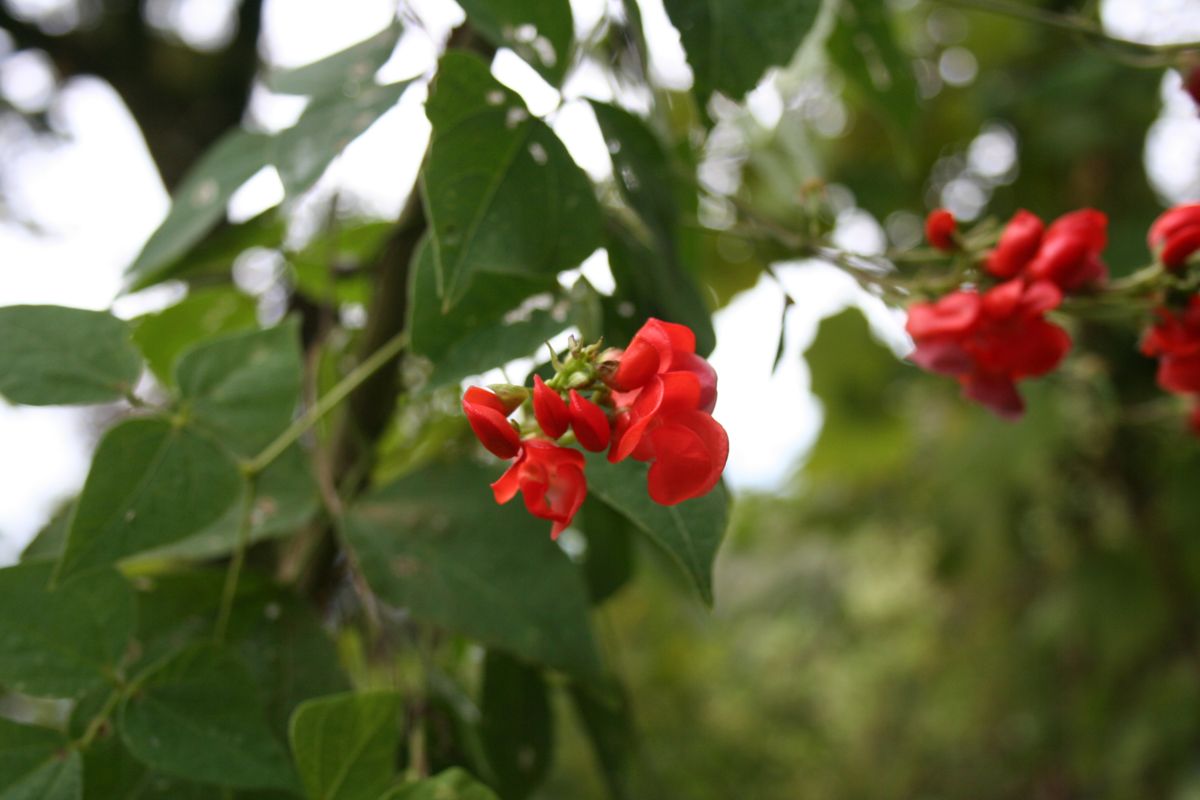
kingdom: Plantae
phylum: Tracheophyta
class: Magnoliopsida
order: Fabales
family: Fabaceae
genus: Phaseolus
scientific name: Phaseolus coccineus
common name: Runner bean
